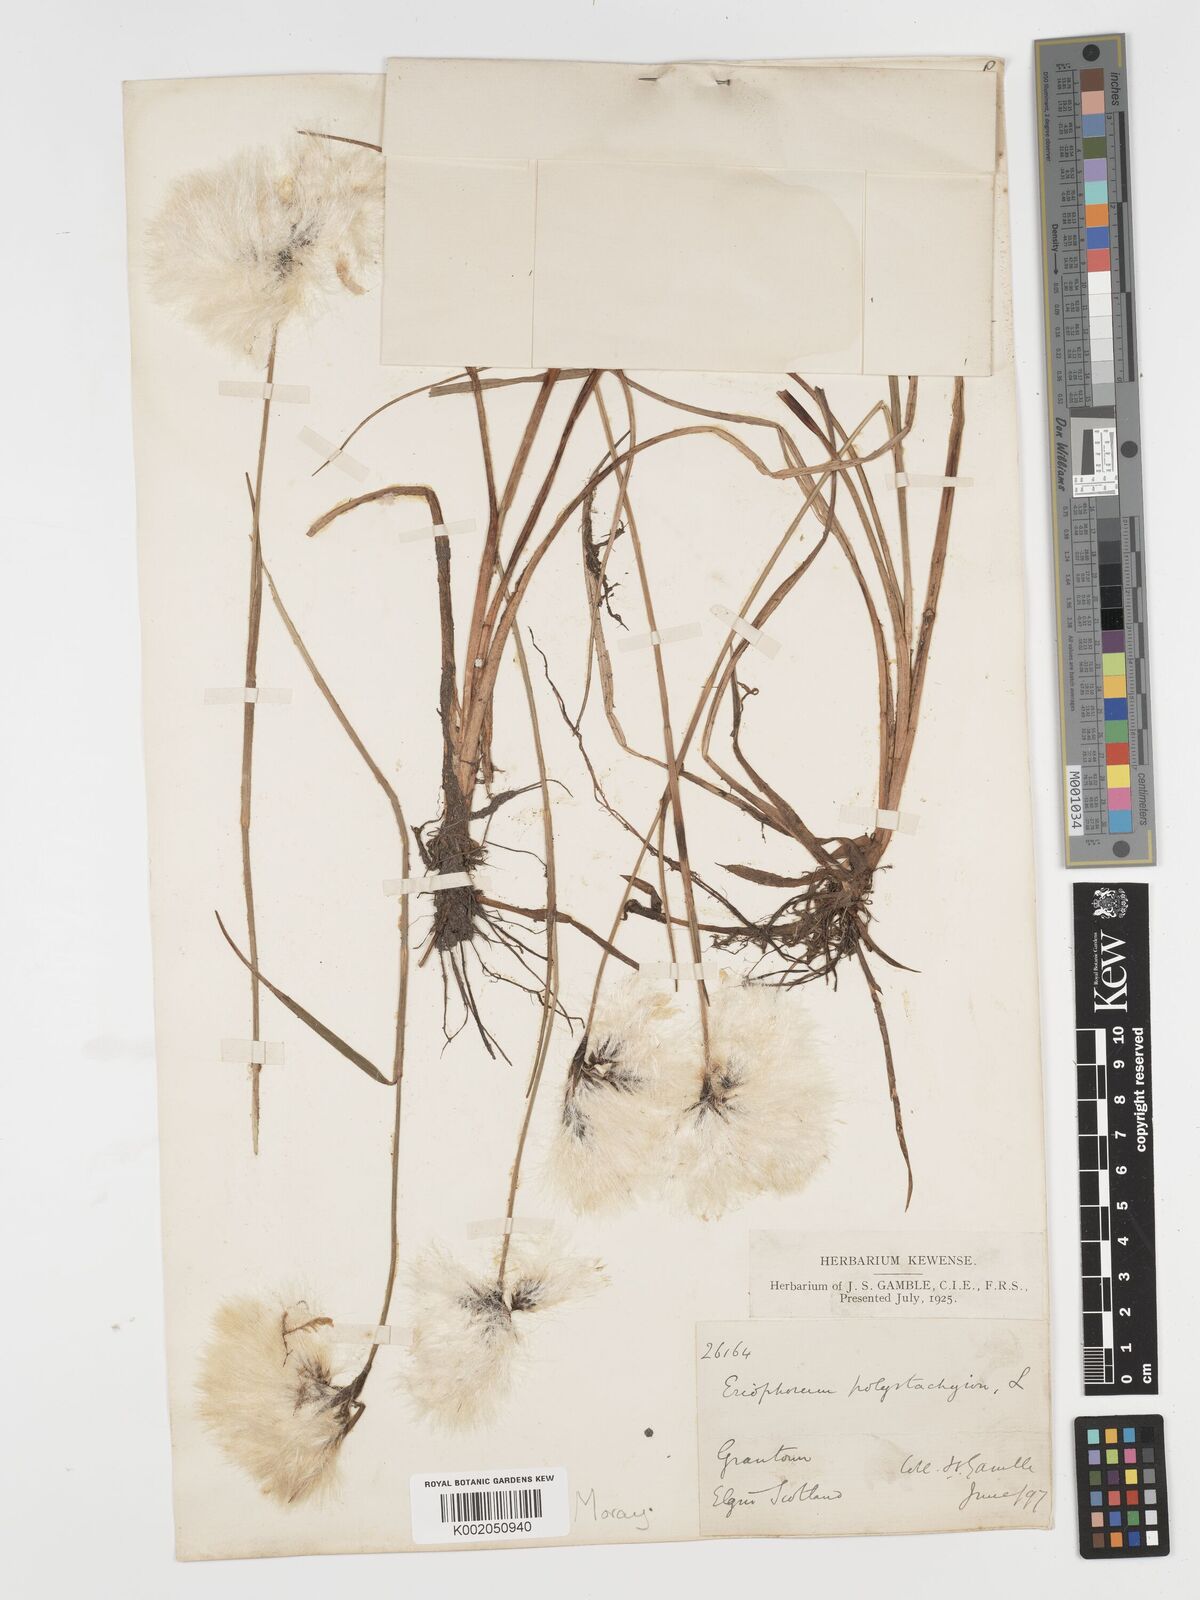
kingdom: Plantae
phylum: Tracheophyta
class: Liliopsida
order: Poales
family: Cyperaceae
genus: Eriophorum
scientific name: Eriophorum angustifolium
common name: Common cottongrass
